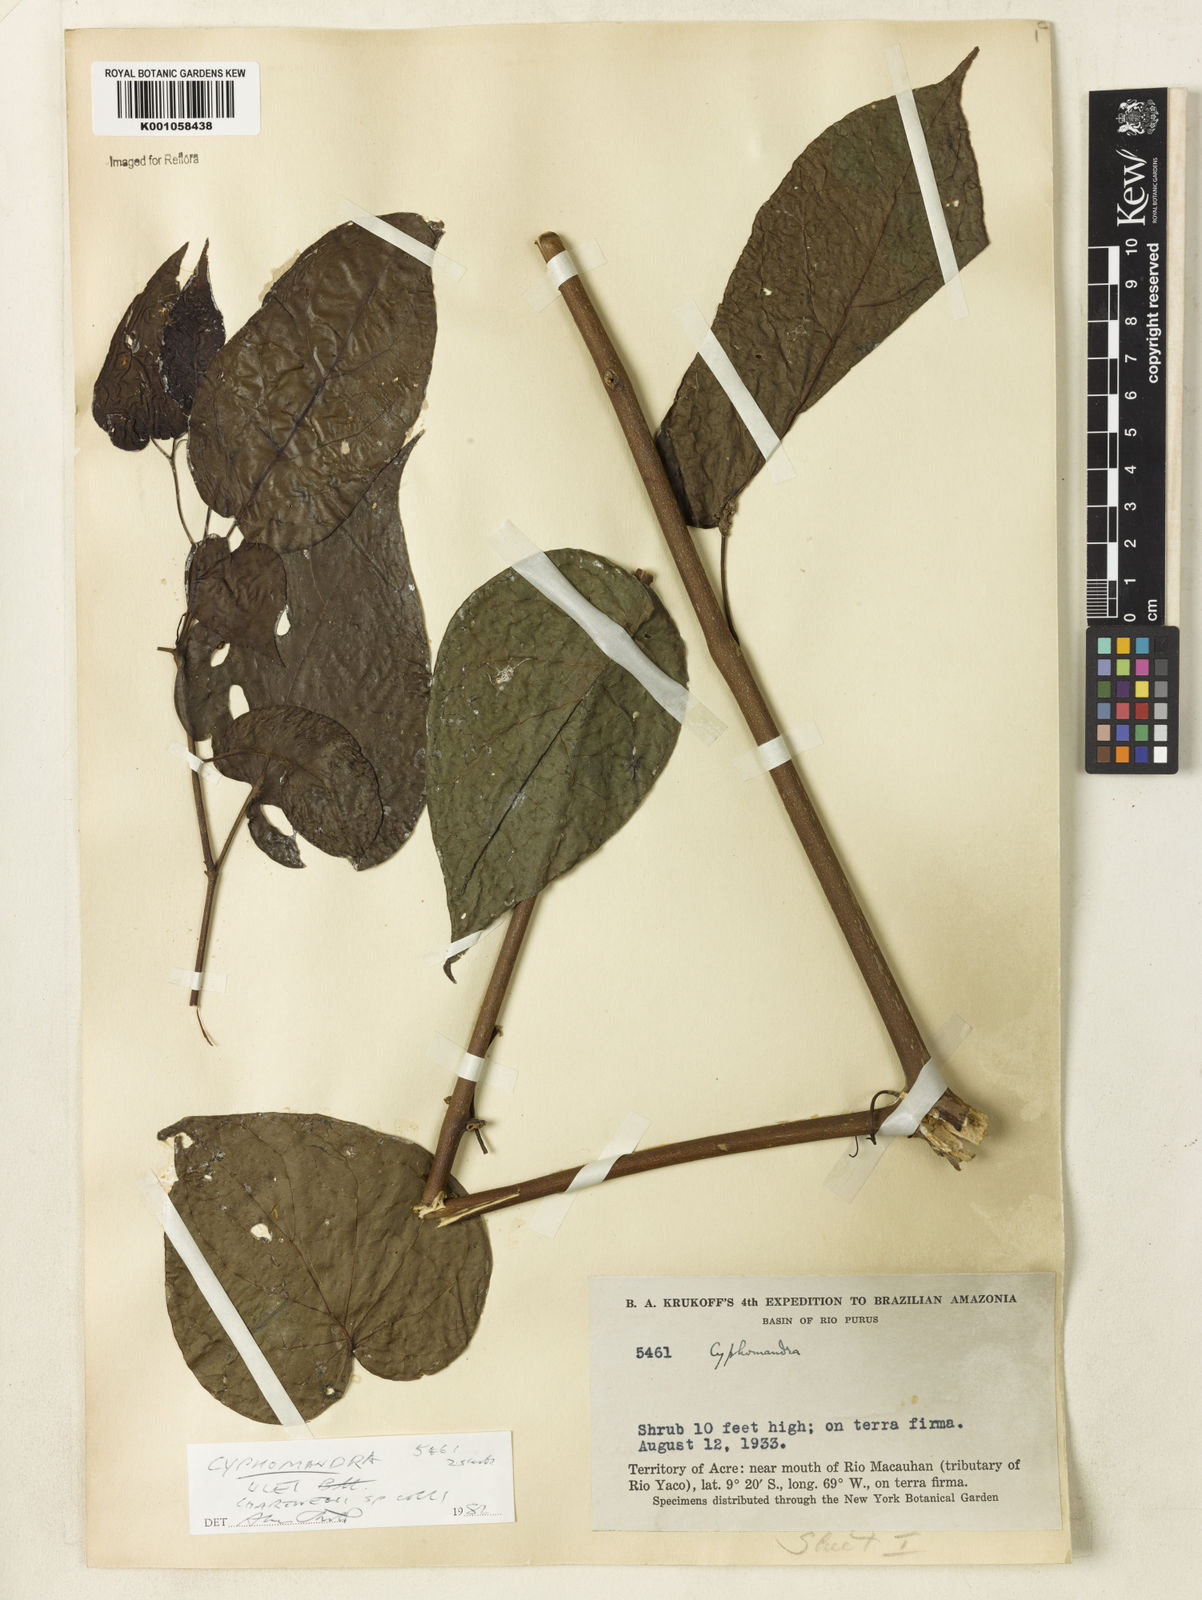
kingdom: Plantae
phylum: Tracheophyta
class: Magnoliopsida
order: Solanales
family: Solanaceae
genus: Solanum
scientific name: Solanum obliquum
